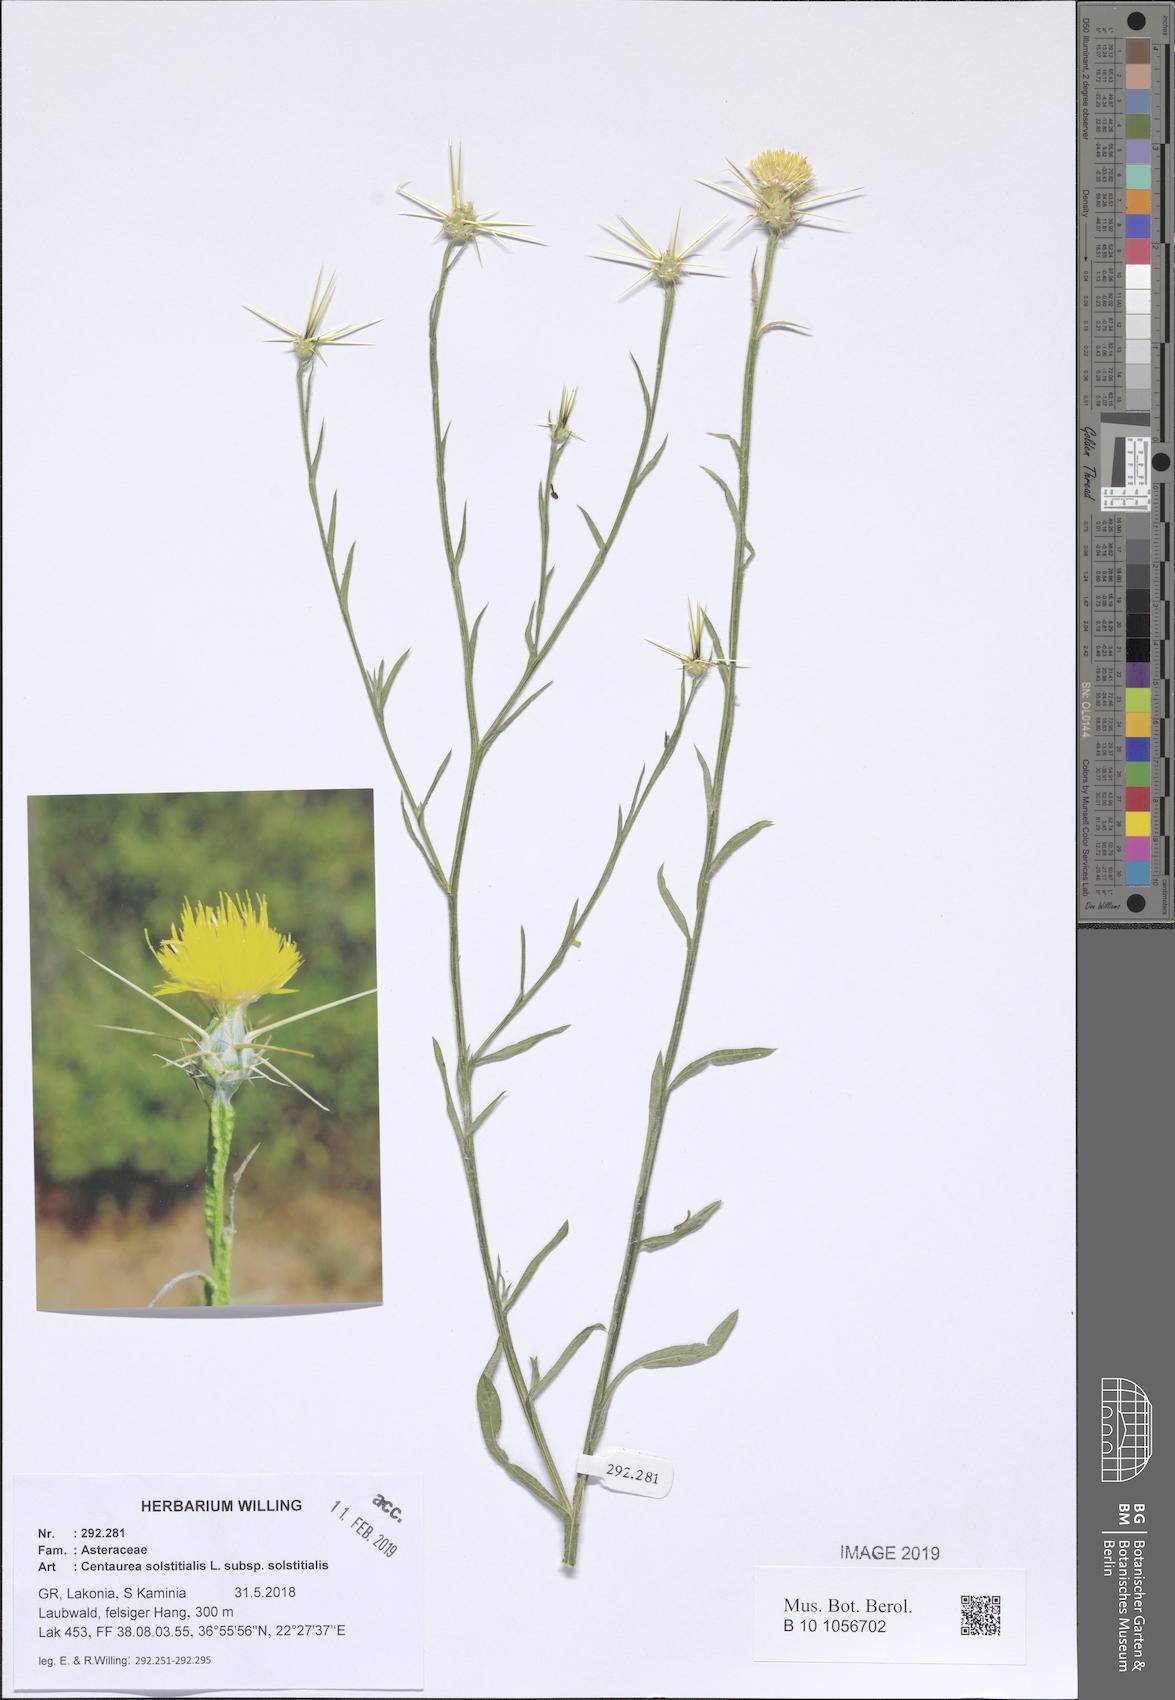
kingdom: Plantae
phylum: Tracheophyta
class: Magnoliopsida
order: Asterales
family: Asteraceae
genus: Centaurea
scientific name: Centaurea solstitialis
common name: Yellow star-thistle
